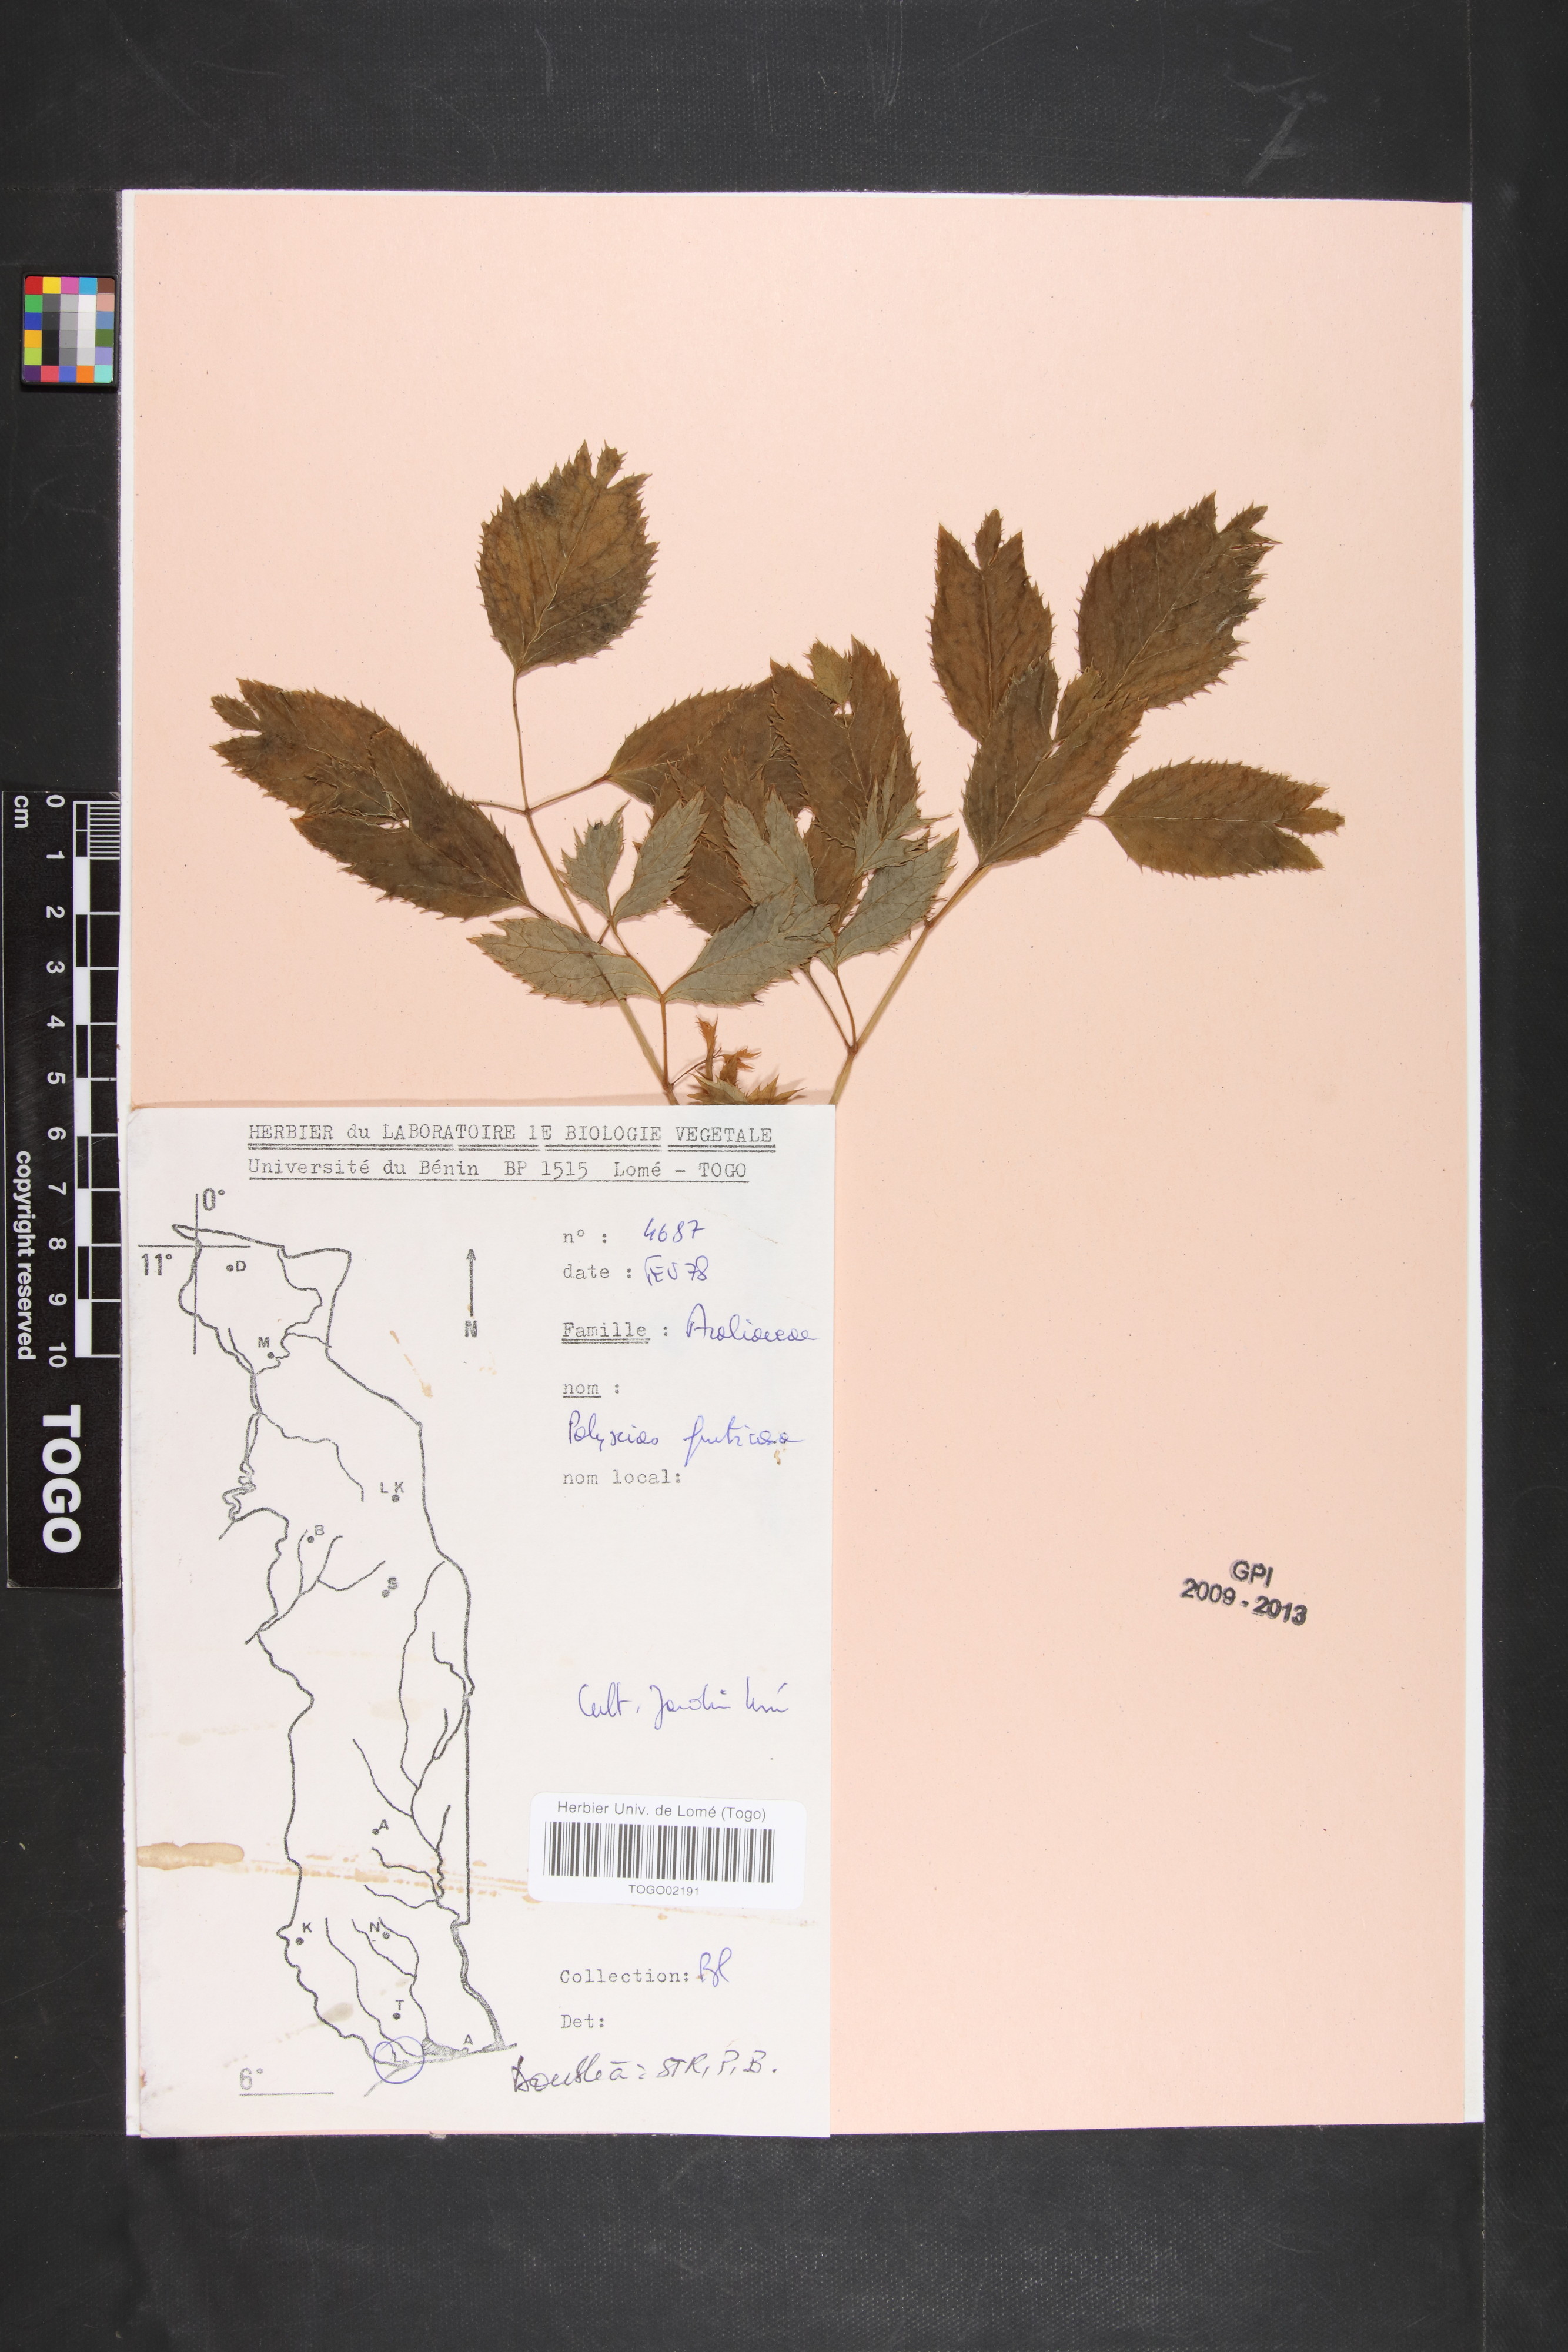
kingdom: Plantae
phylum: Tracheophyta
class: Magnoliopsida
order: Apiales
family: Araliaceae
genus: Polyscias
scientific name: Polyscias fruticosa
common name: Teatree
